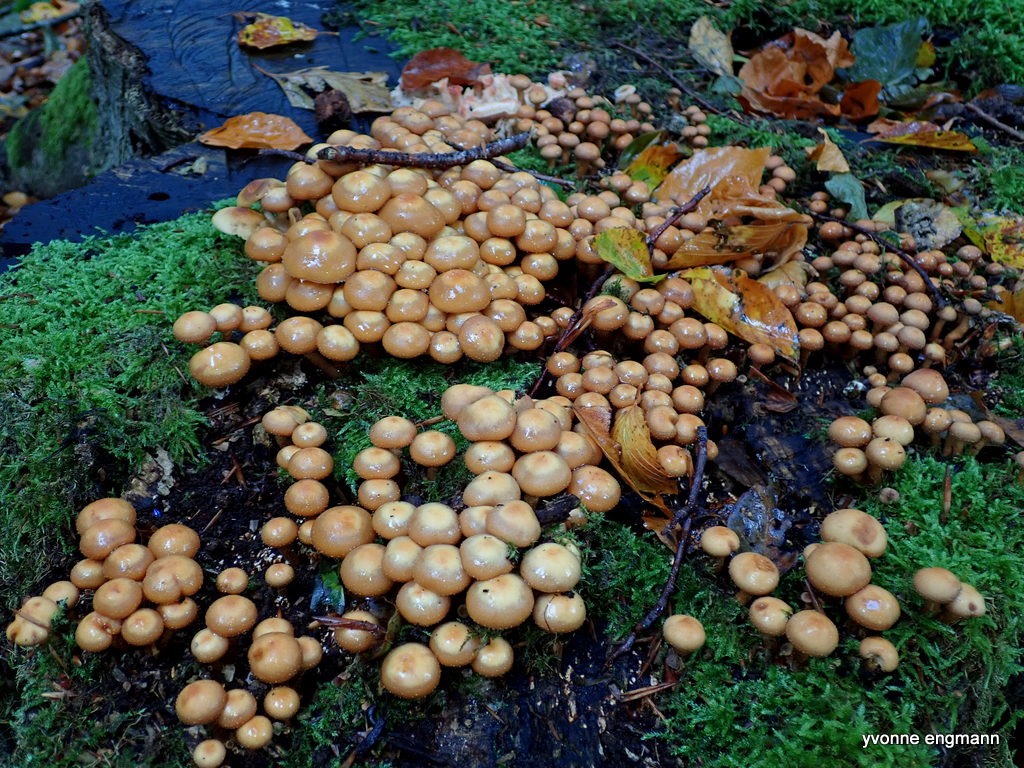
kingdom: Fungi
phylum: Basidiomycota
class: Agaricomycetes
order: Agaricales
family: Strophariaceae
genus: Kuehneromyces
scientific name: Kuehneromyces mutabilis
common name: foranderlig skælhat
